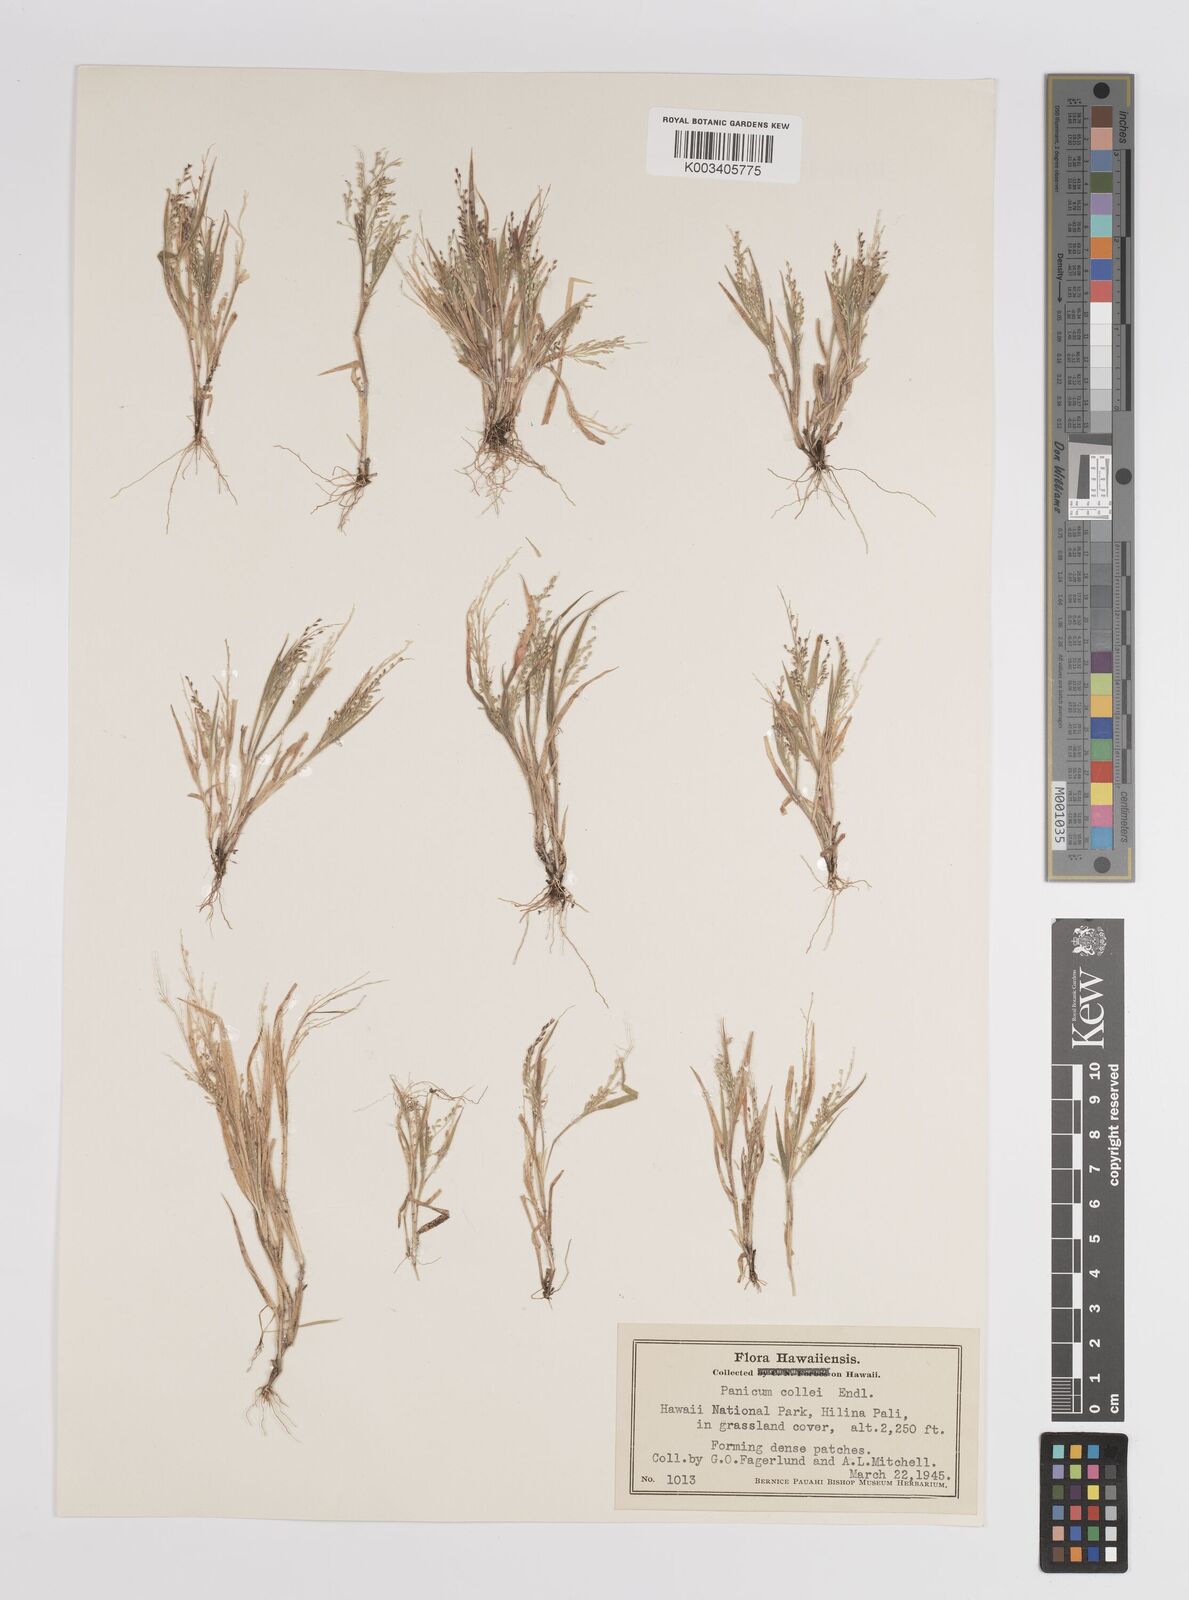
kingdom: Plantae
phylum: Tracheophyta
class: Liliopsida
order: Poales
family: Poaceae
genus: Panicum
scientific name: Panicum pellitum
